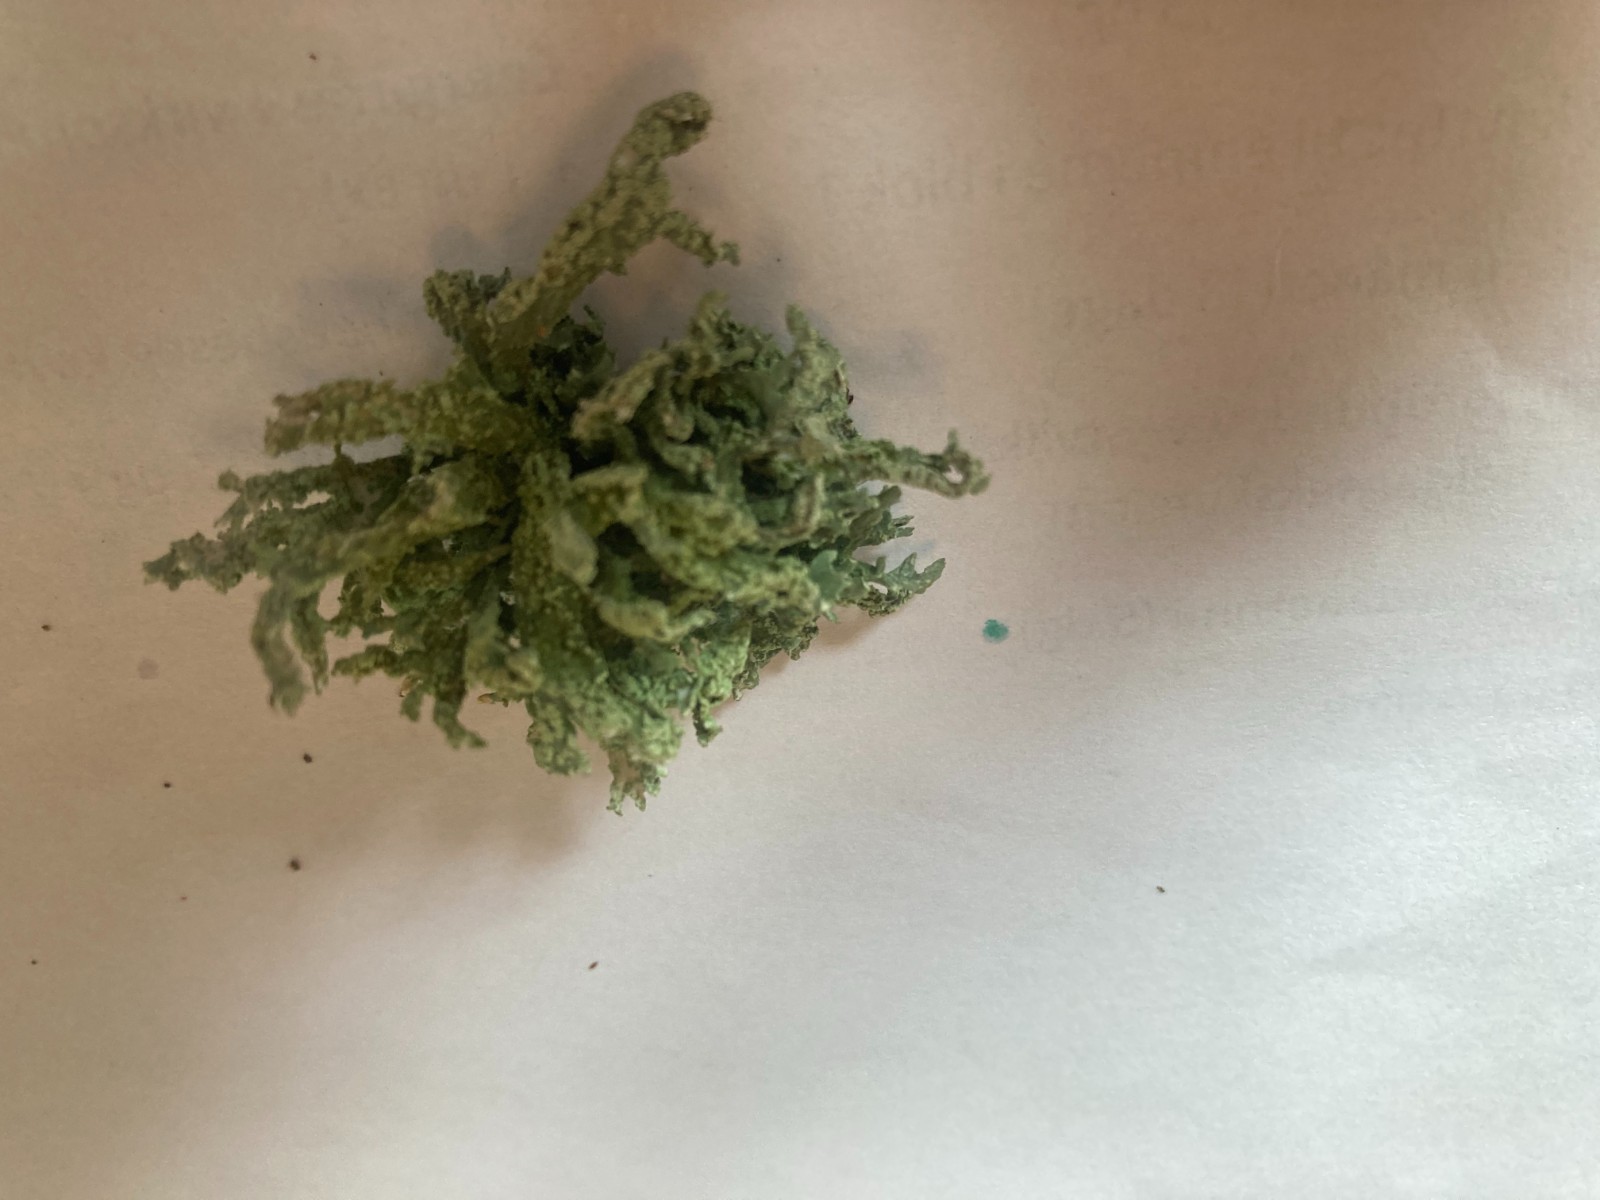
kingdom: Fungi
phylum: Ascomycota
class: Lecanoromycetes
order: Lecanorales
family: Parmeliaceae
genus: Evernia
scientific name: Evernia prunastri
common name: almindelig slåenlav
